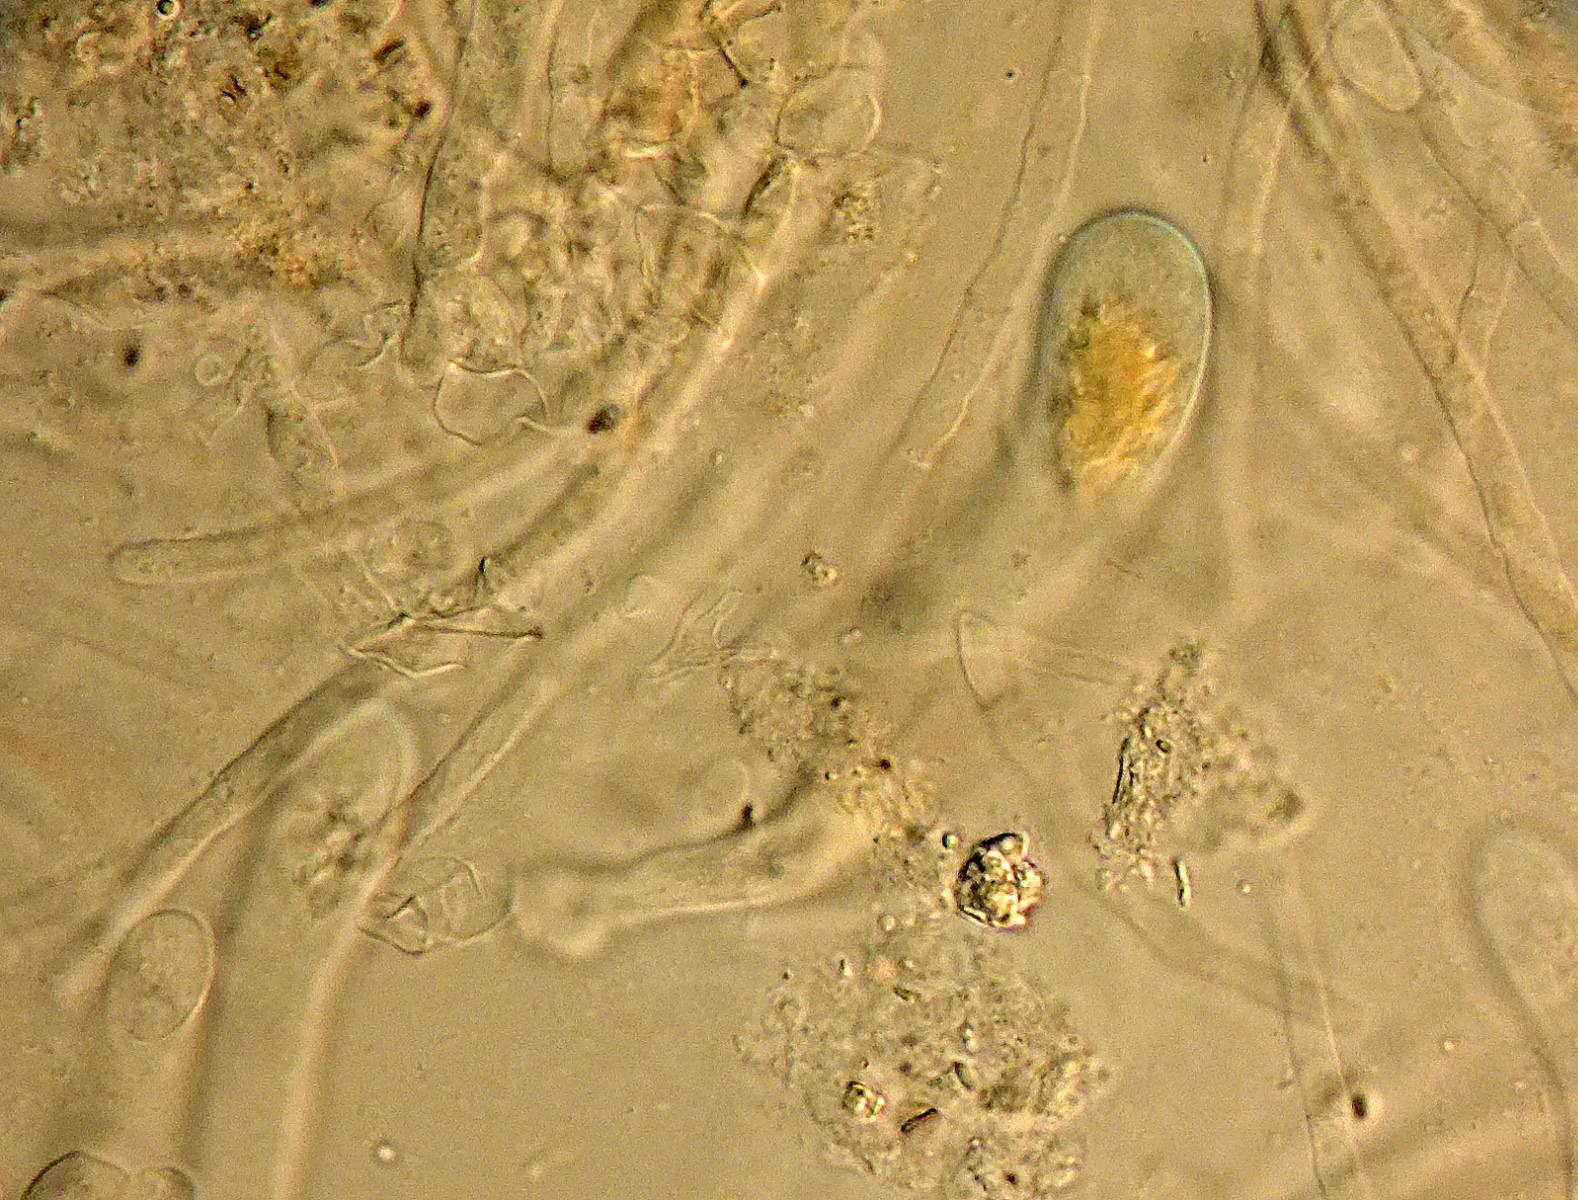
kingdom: Fungi
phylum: Ascomycota
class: Pezizomycetes
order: Pezizales
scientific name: Pezizales
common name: bægersvampordenen
